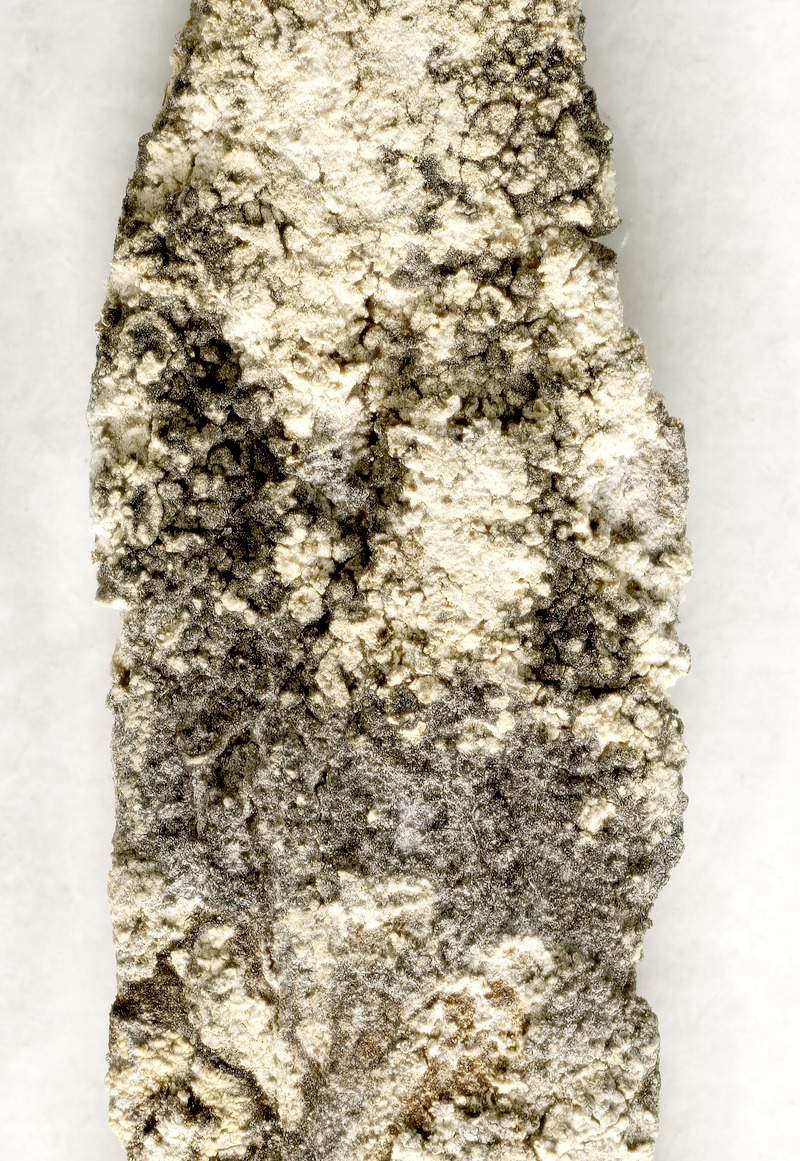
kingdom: Fungi
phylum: Ascomycota
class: Leotiomycetes
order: Helotiales
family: Mollisiaceae
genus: Trimmatostroma
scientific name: Trimmatostroma dendrographae
